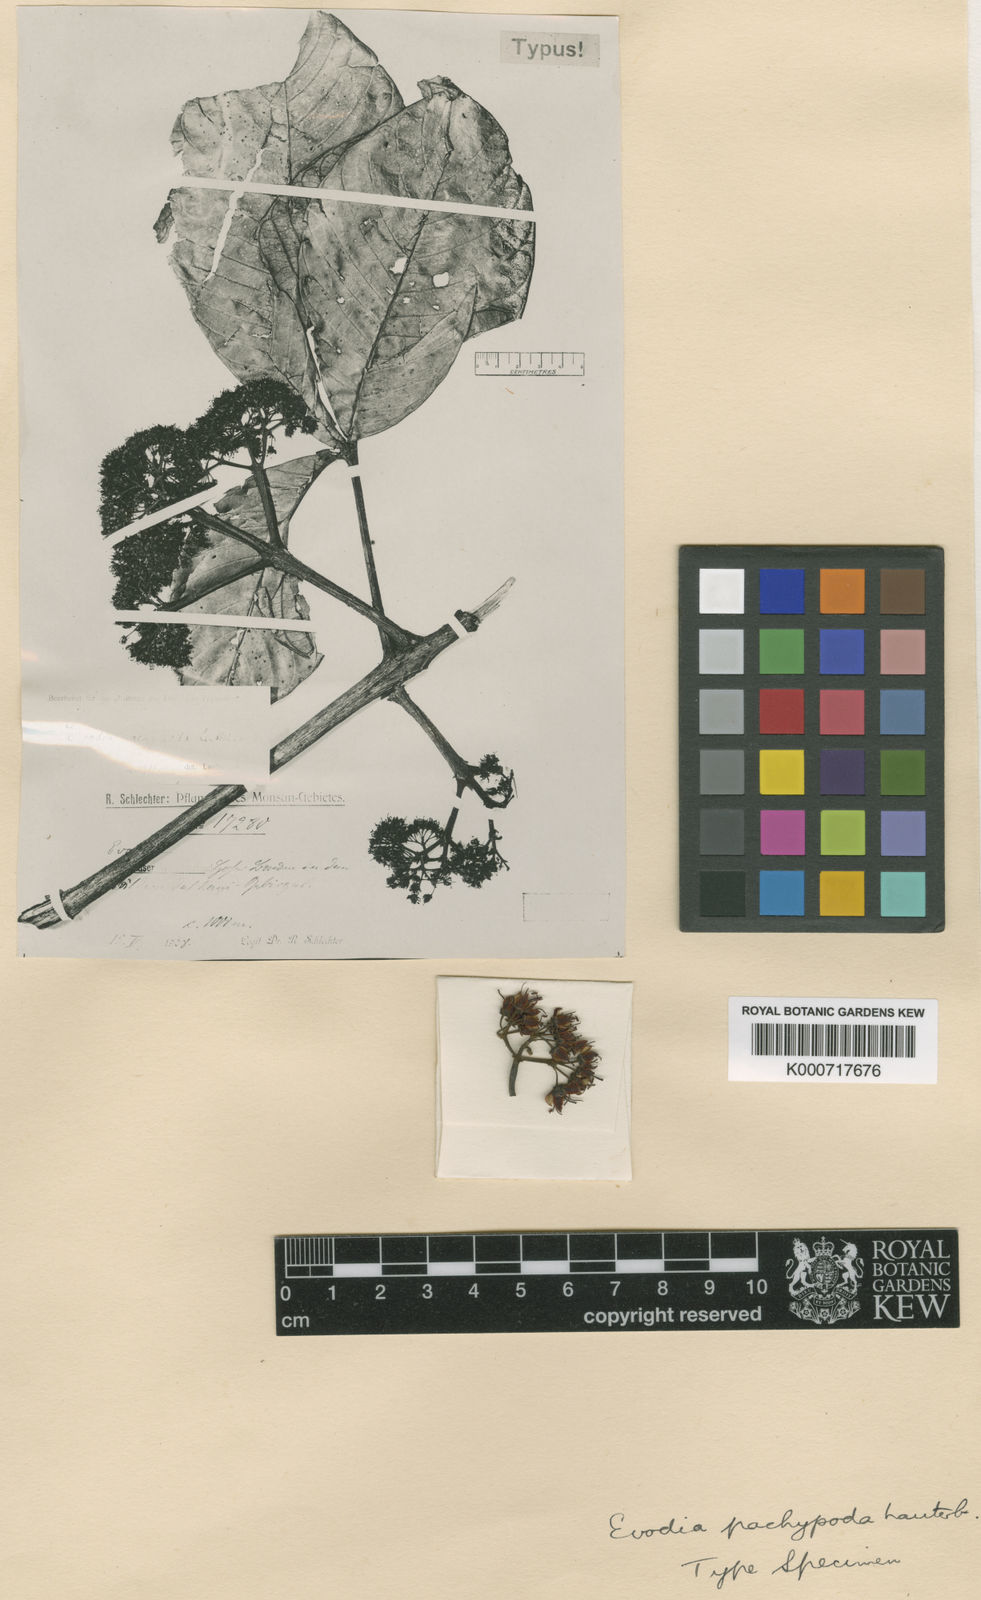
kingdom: Plantae
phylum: Tracheophyta
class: Magnoliopsida
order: Sapindales
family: Rutaceae
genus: Melicope
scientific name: Melicope pachypoda
